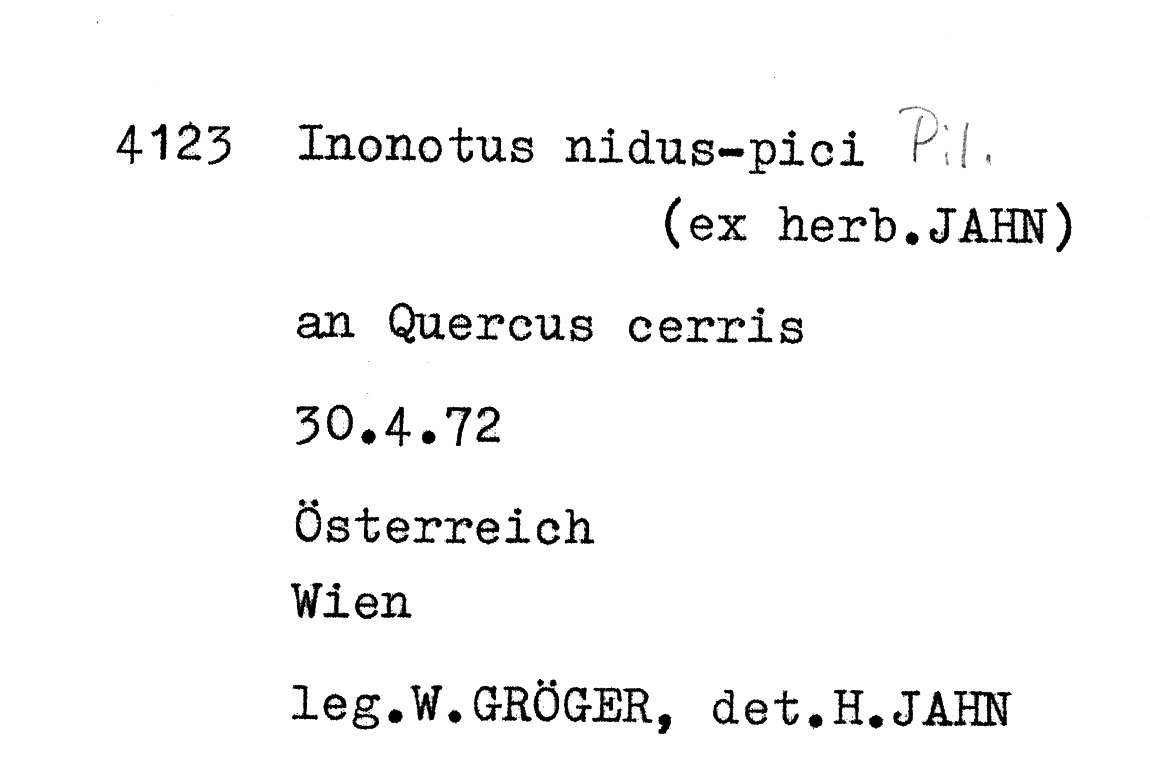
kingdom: Plantae
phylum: Tracheophyta
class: Magnoliopsida
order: Fagales
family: Fagaceae
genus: Quercus
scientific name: Quercus cerris
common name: Turkey oak
